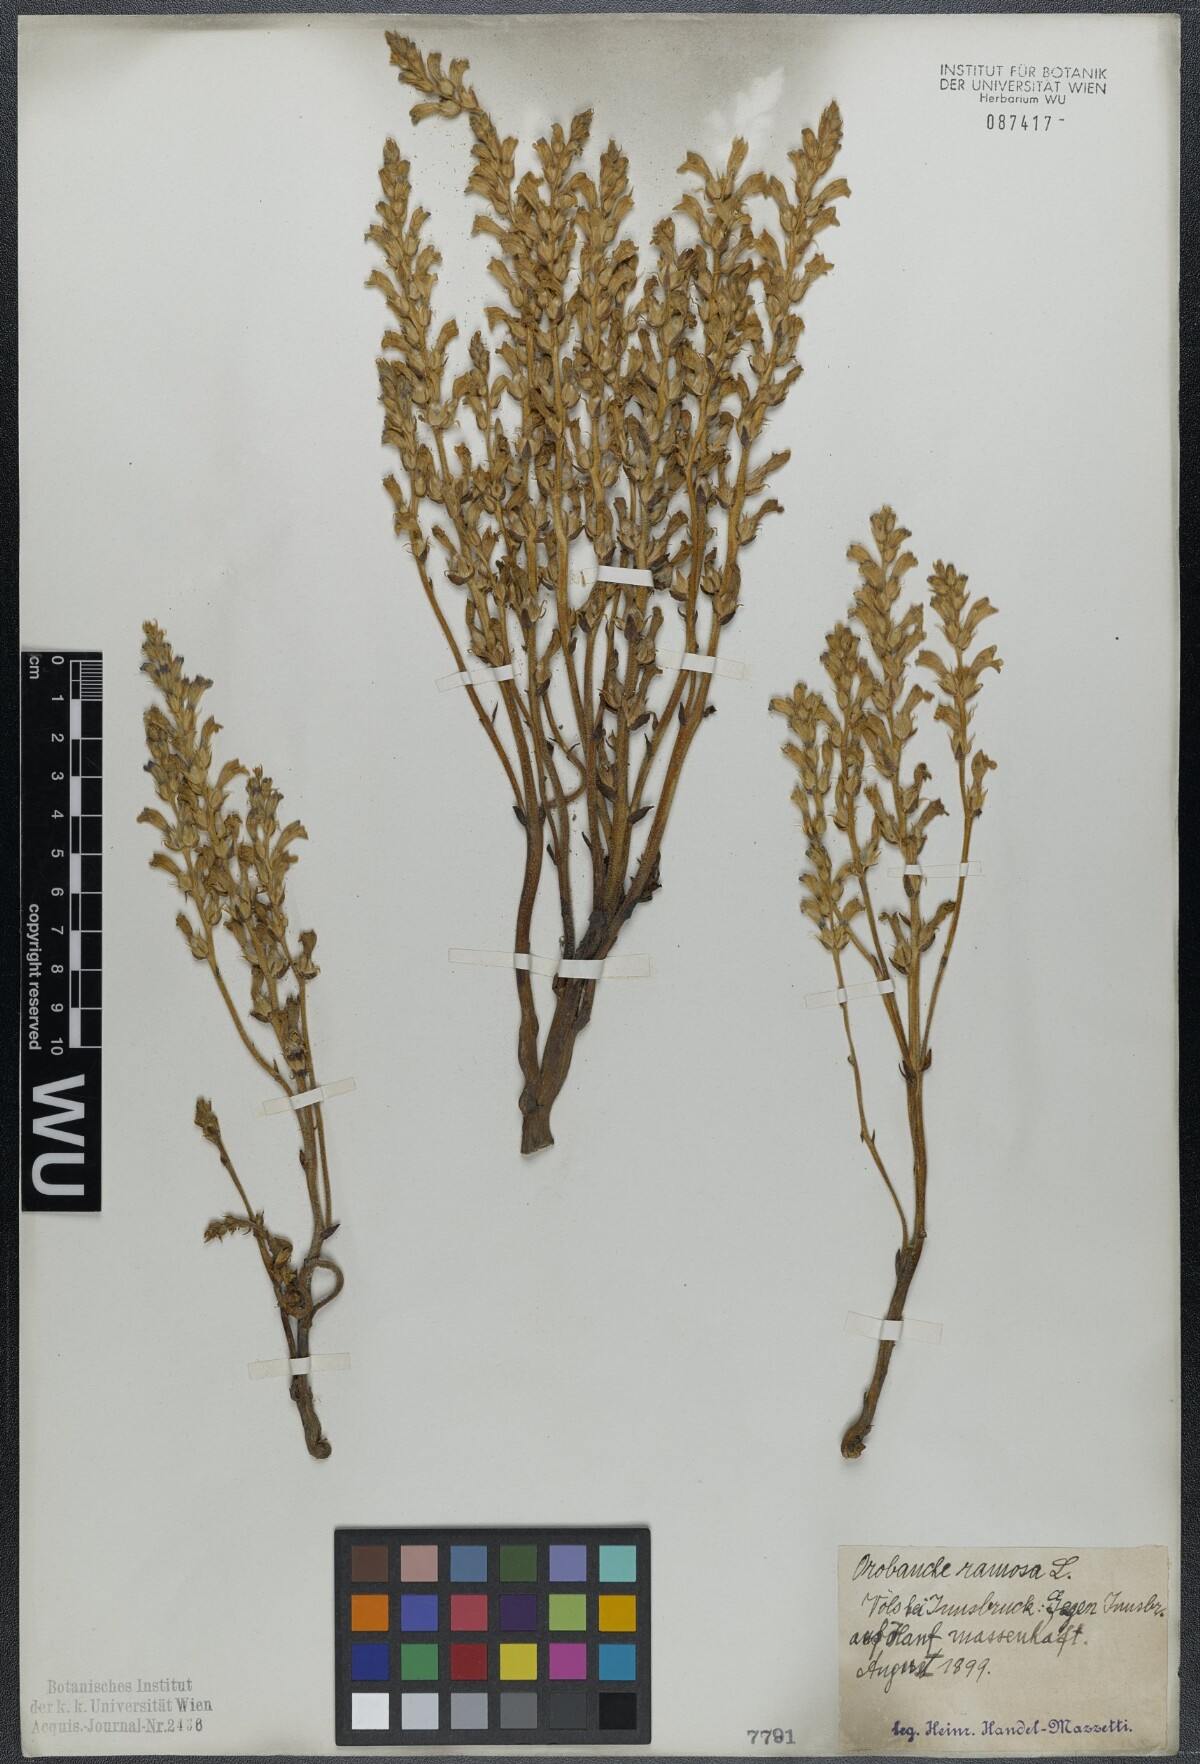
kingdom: Plantae
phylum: Tracheophyta
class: Magnoliopsida
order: Lamiales
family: Orobanchaceae
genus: Phelipanche
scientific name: Phelipanche ramosa
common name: Branched broomrape
